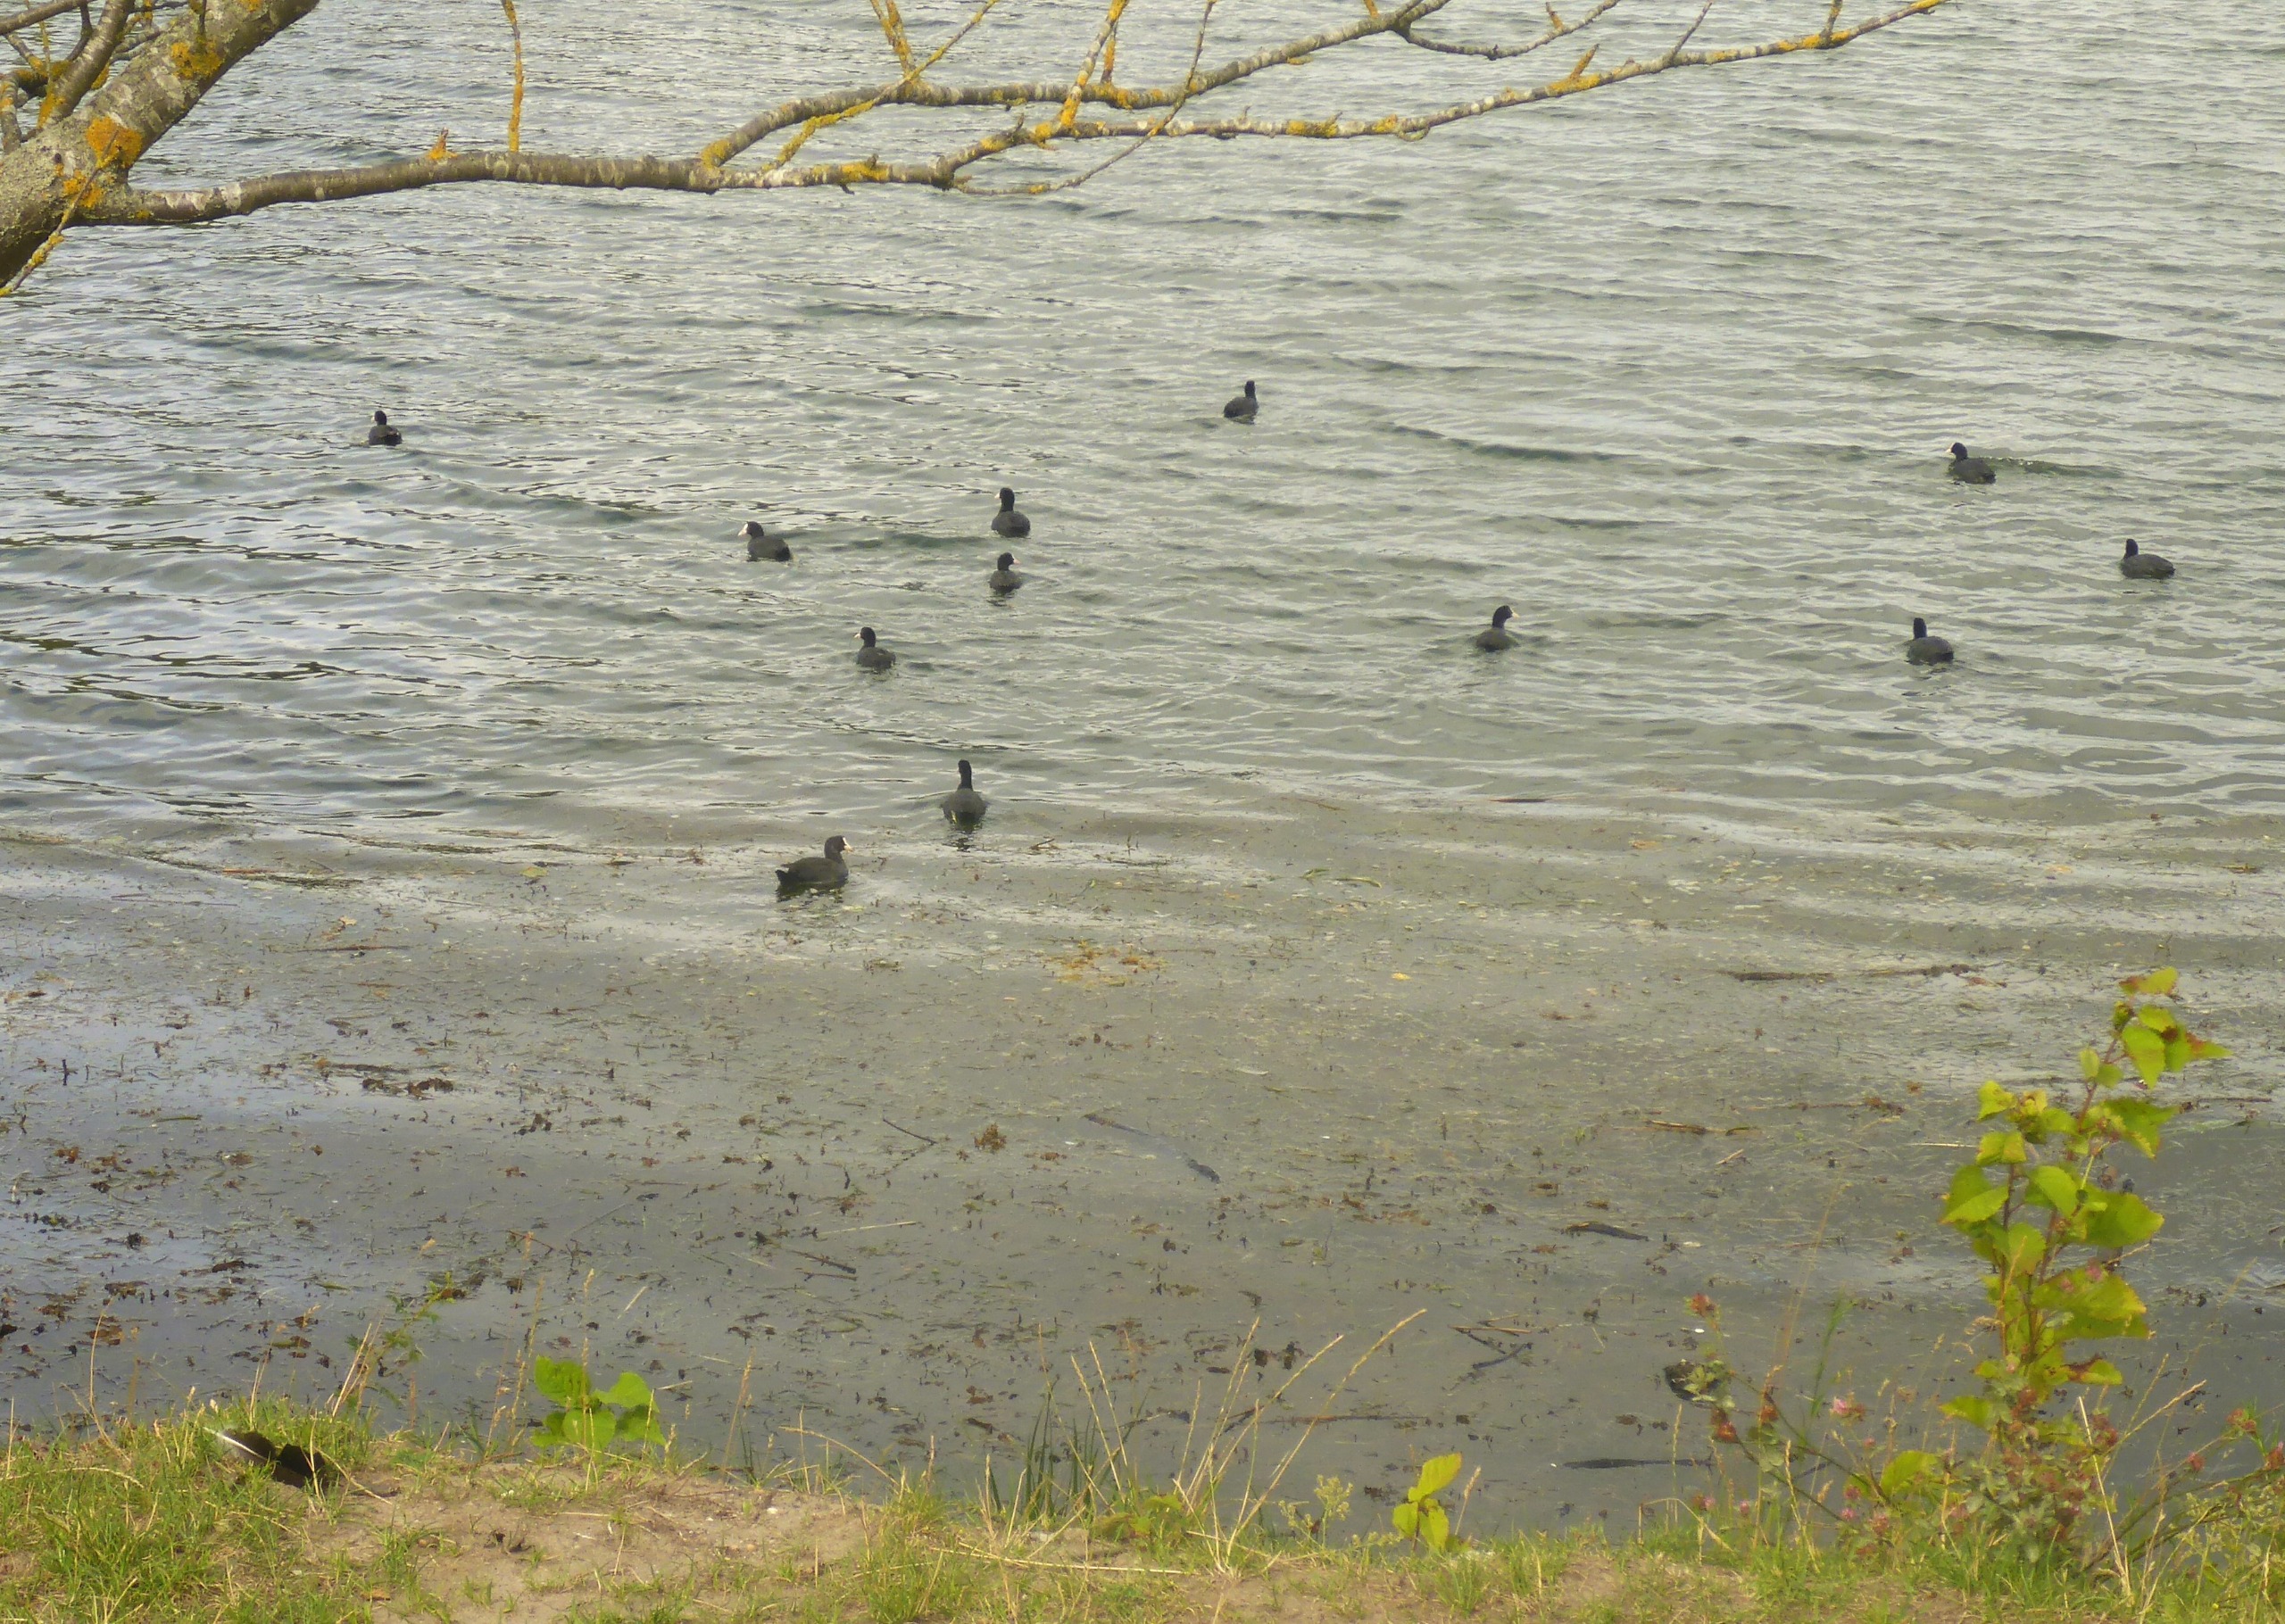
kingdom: Animalia
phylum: Chordata
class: Aves
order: Gruiformes
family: Rallidae
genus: Fulica
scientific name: Fulica atra
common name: Blishøne
